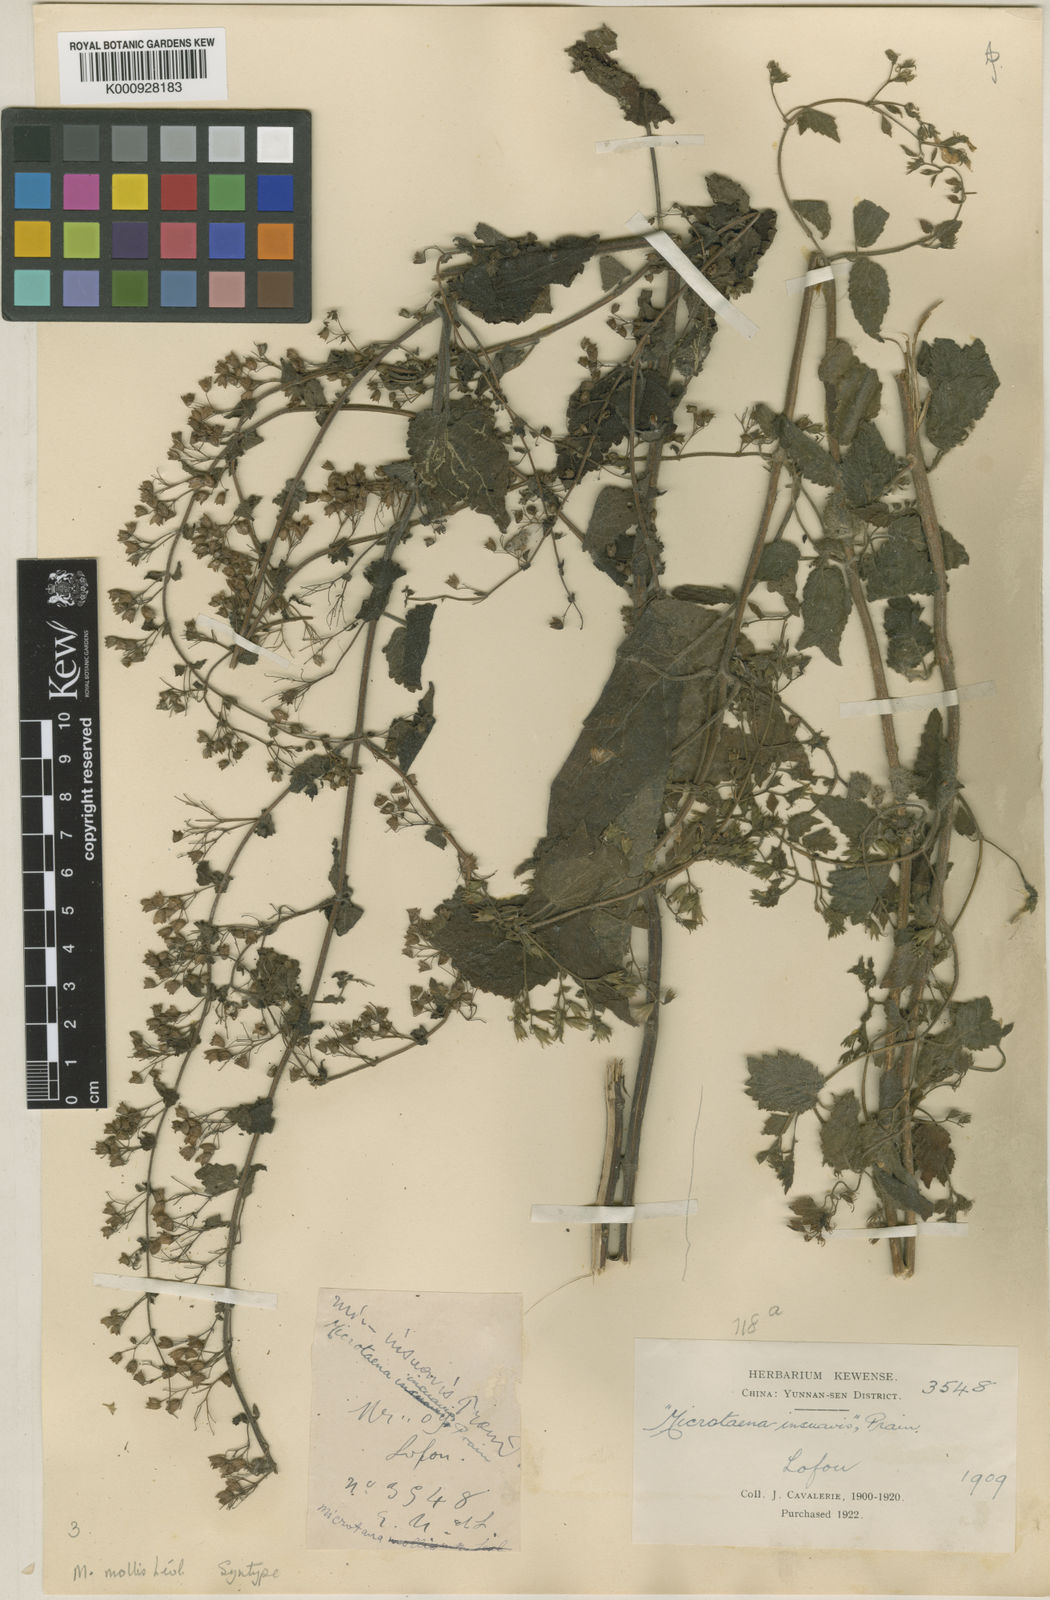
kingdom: Plantae
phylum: Tracheophyta
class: Magnoliopsida
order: Lamiales
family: Lamiaceae
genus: Microtoena
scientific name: Microtoena
